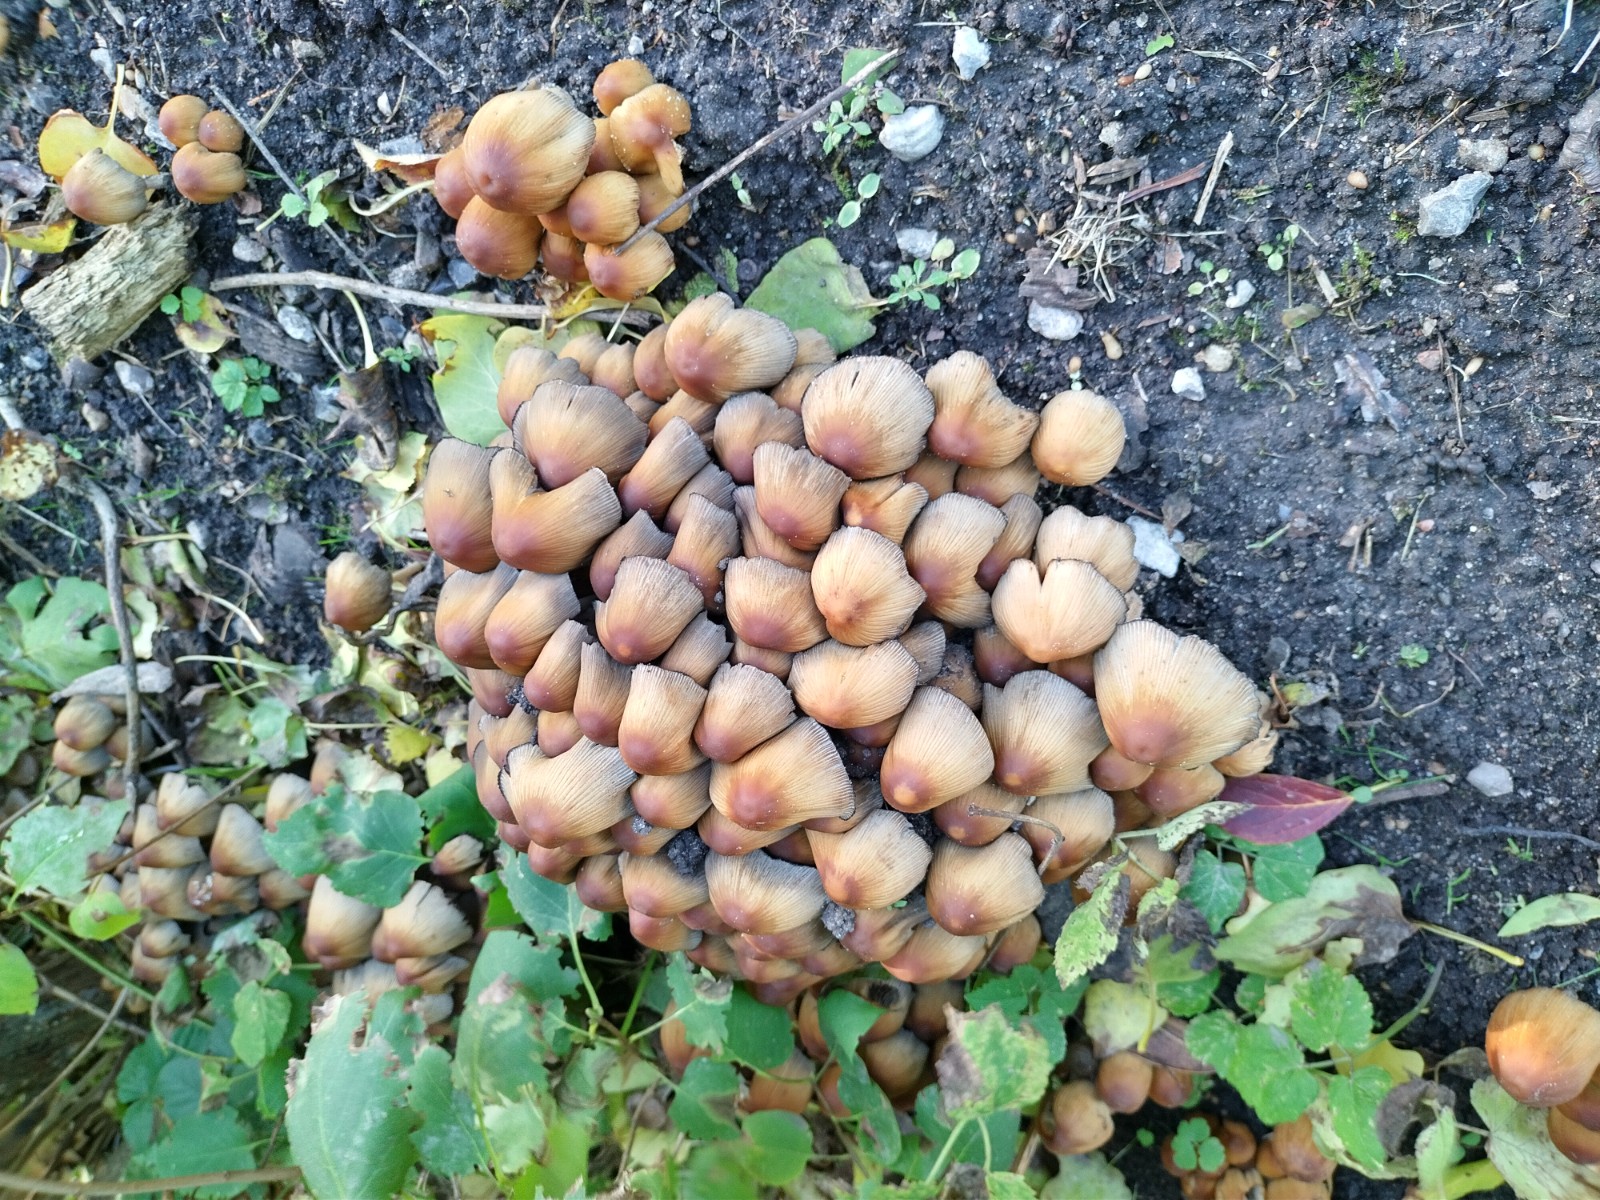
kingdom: Fungi
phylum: Basidiomycota
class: Agaricomycetes
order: Agaricales
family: Psathyrellaceae
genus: Coprinellus
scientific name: Coprinellus micaceus
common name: glimmer-blækhat
